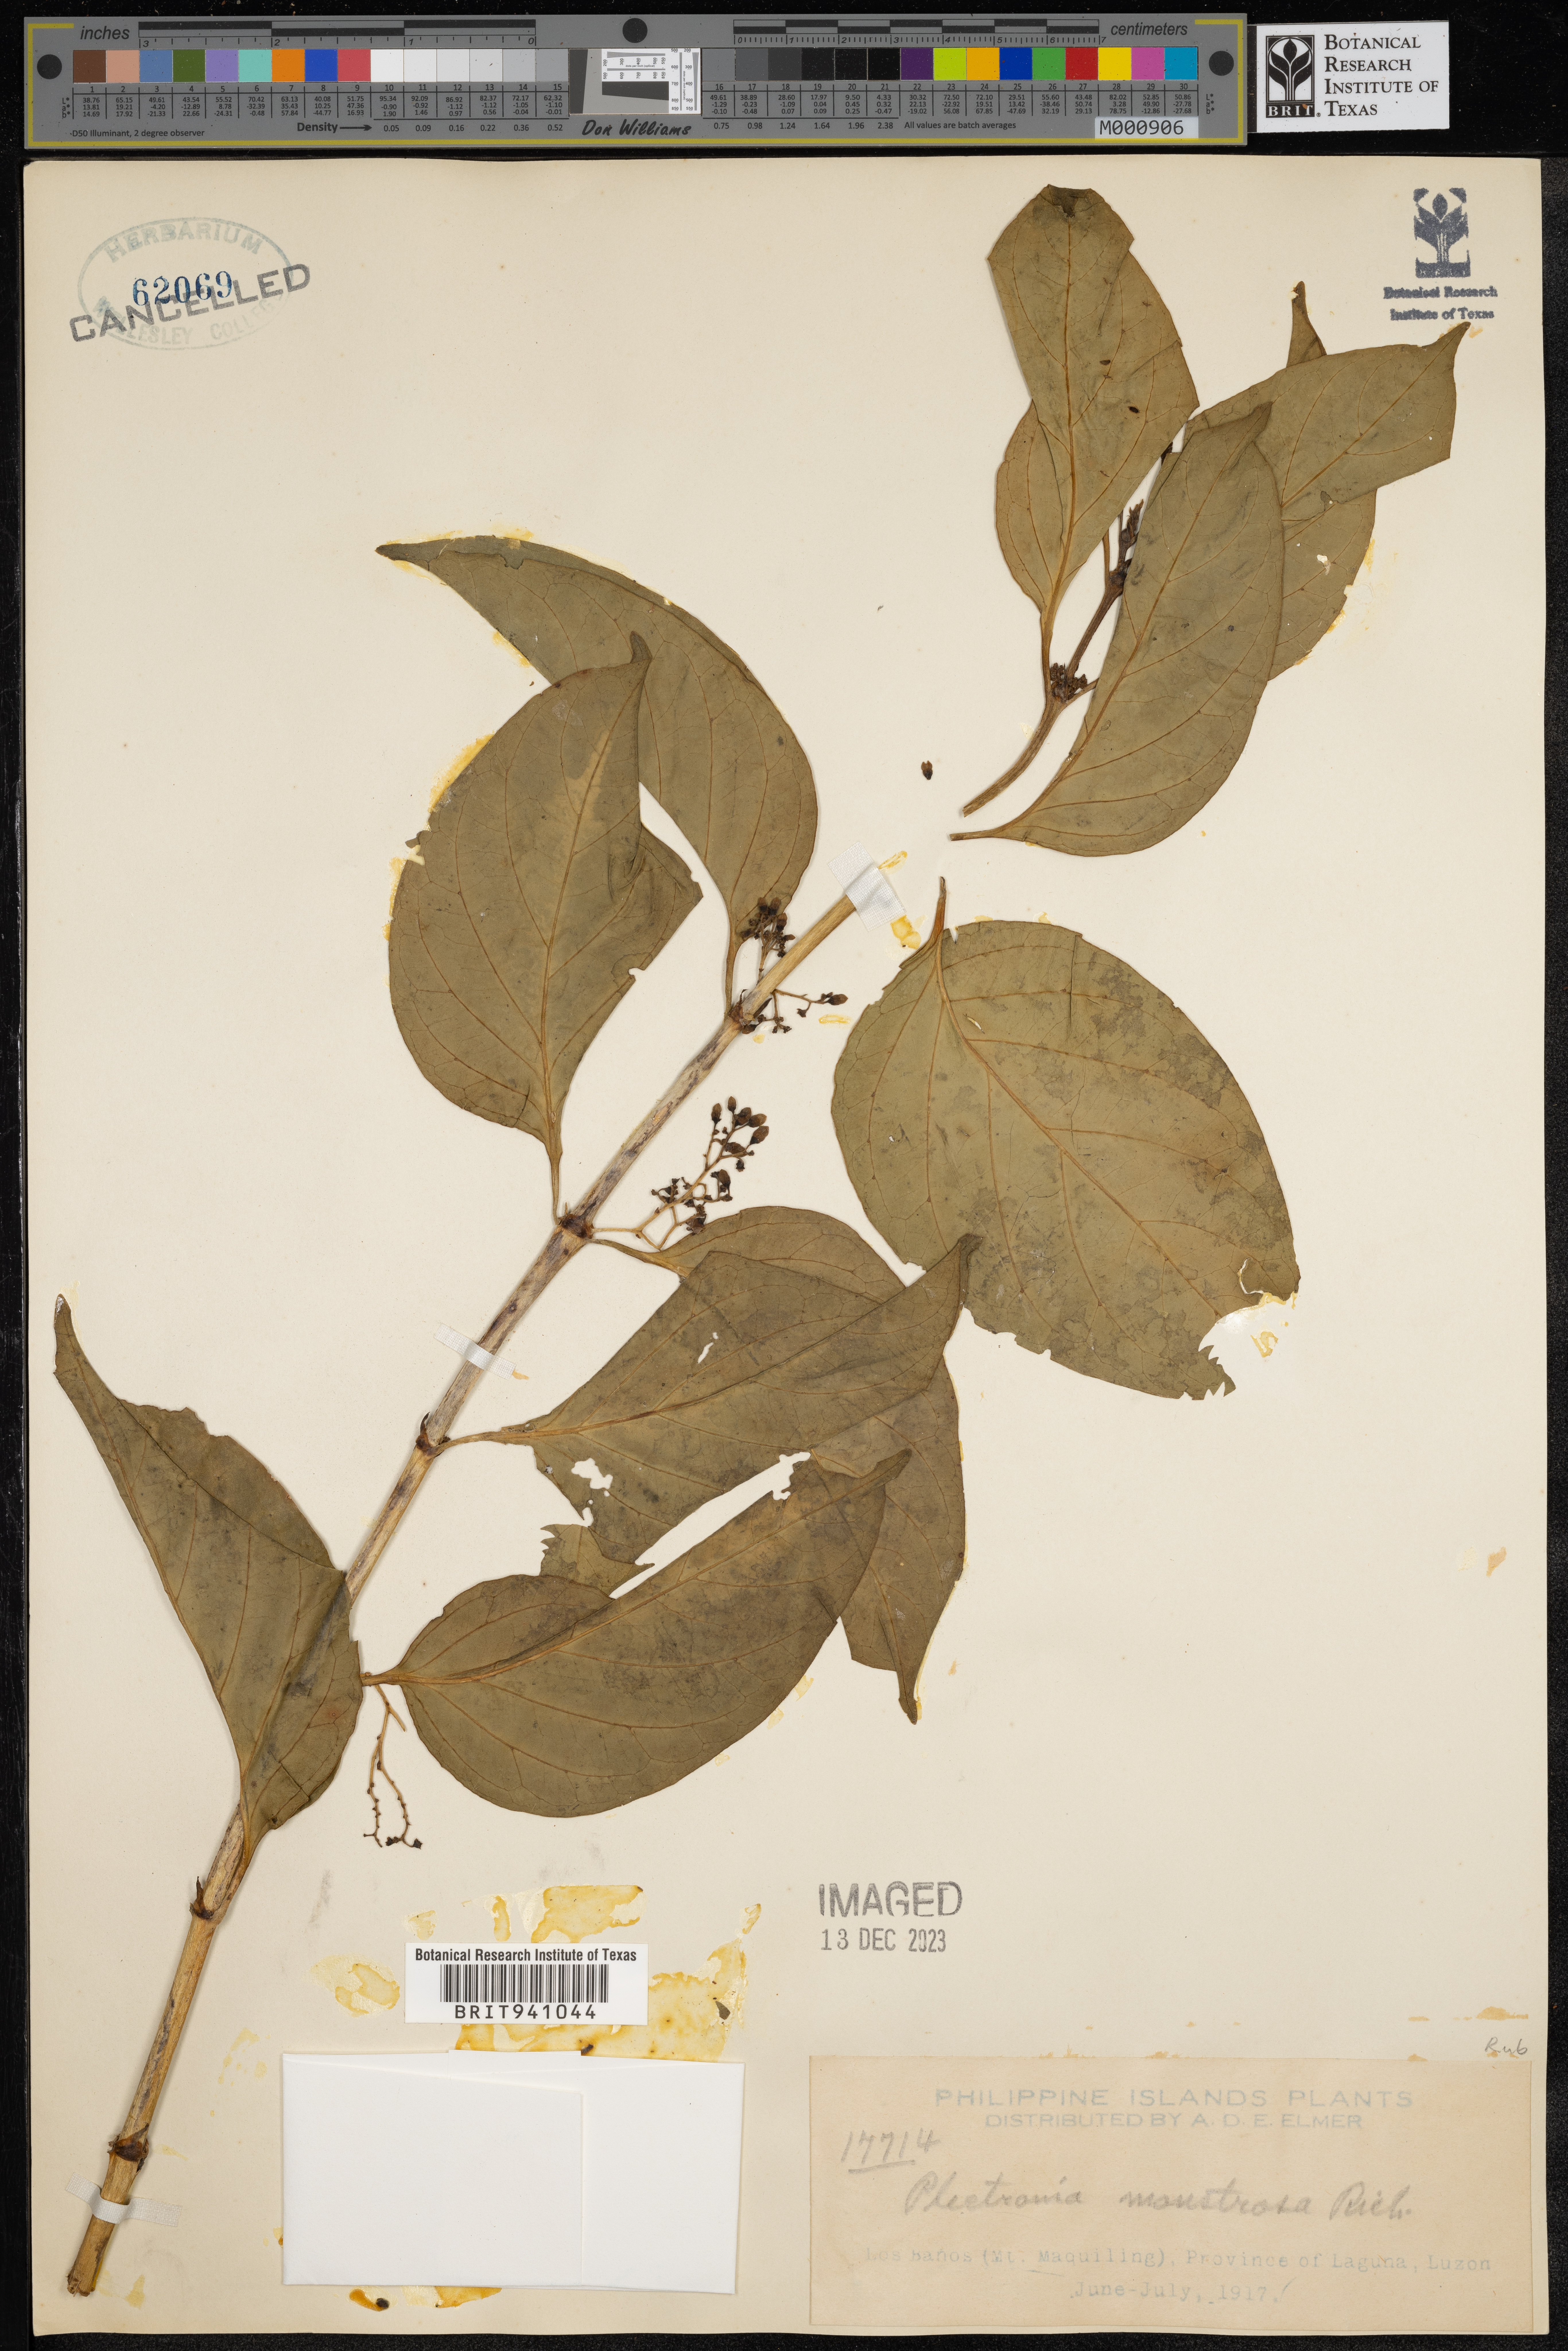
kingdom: Plantae
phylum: Tracheophyta
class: Magnoliopsida
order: Myrtales
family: Lythraceae
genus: Plectronia
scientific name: Plectronia
